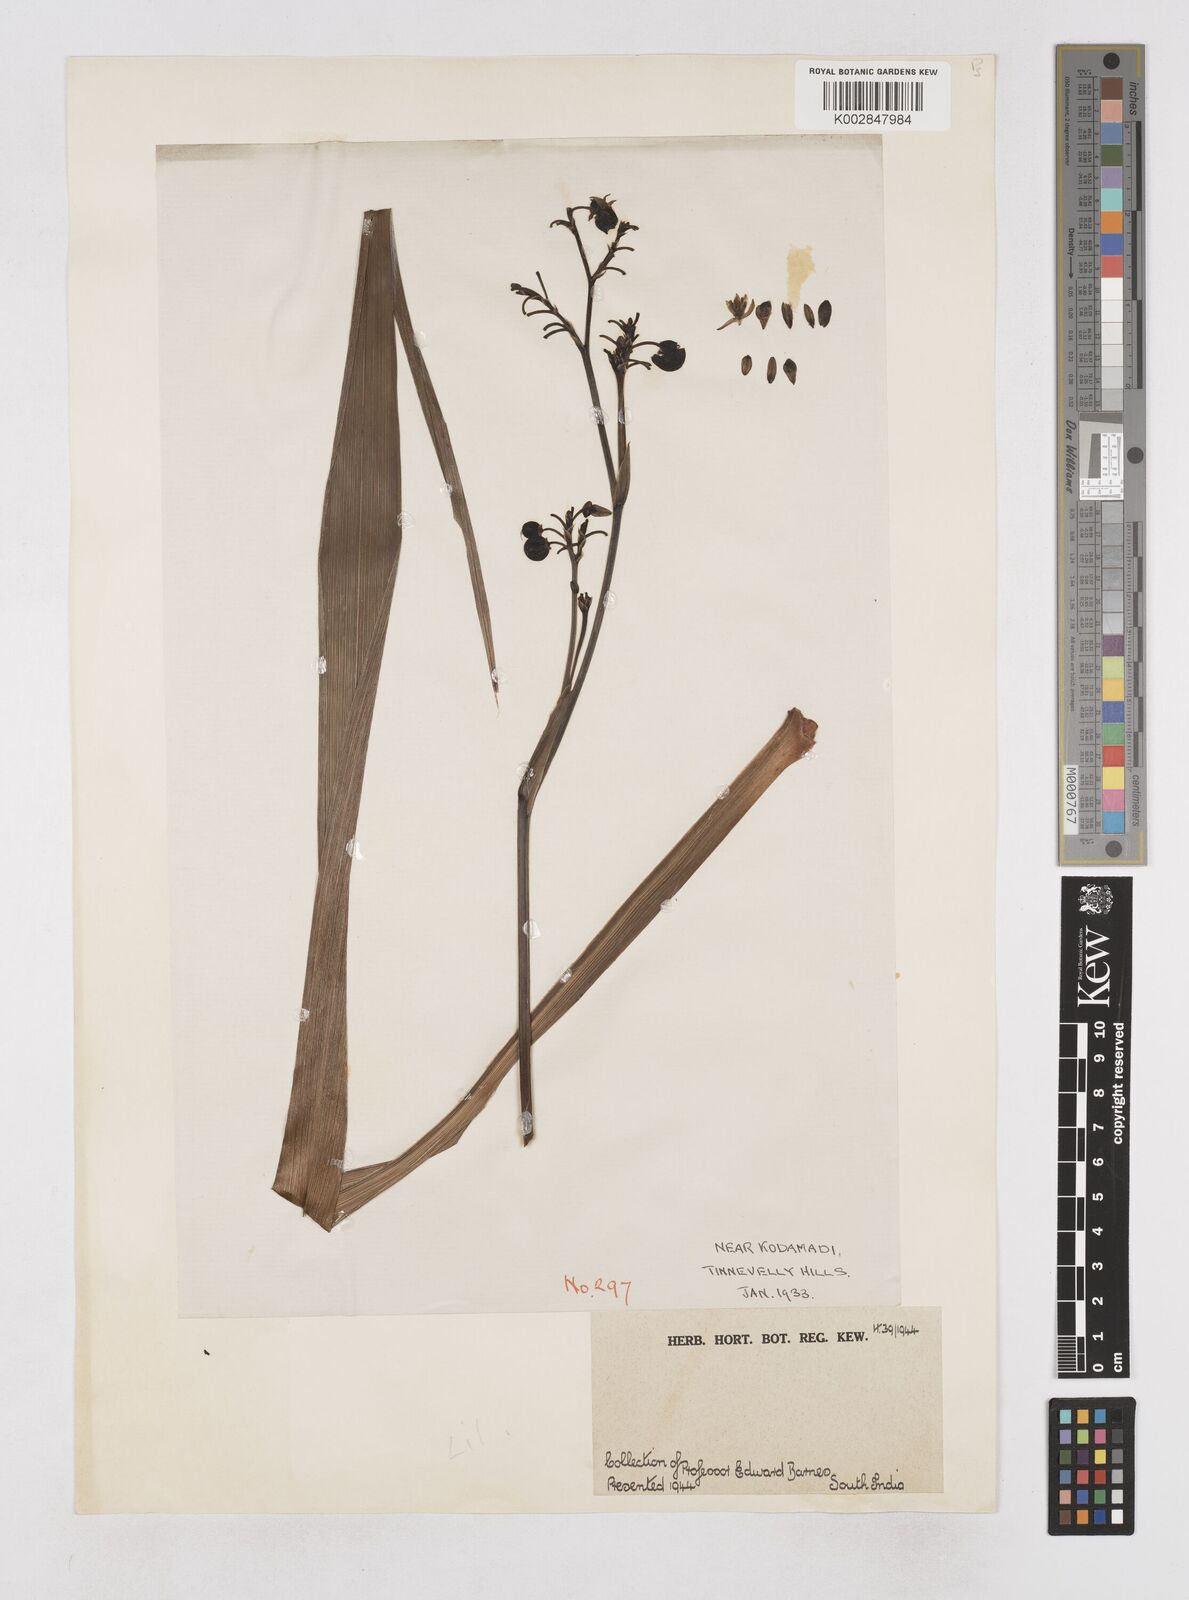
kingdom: Plantae
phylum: Tracheophyta
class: Liliopsida
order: Asparagales
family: Asphodelaceae
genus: Dianella
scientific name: Dianella ensifolia
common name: New zealand lilyplant
